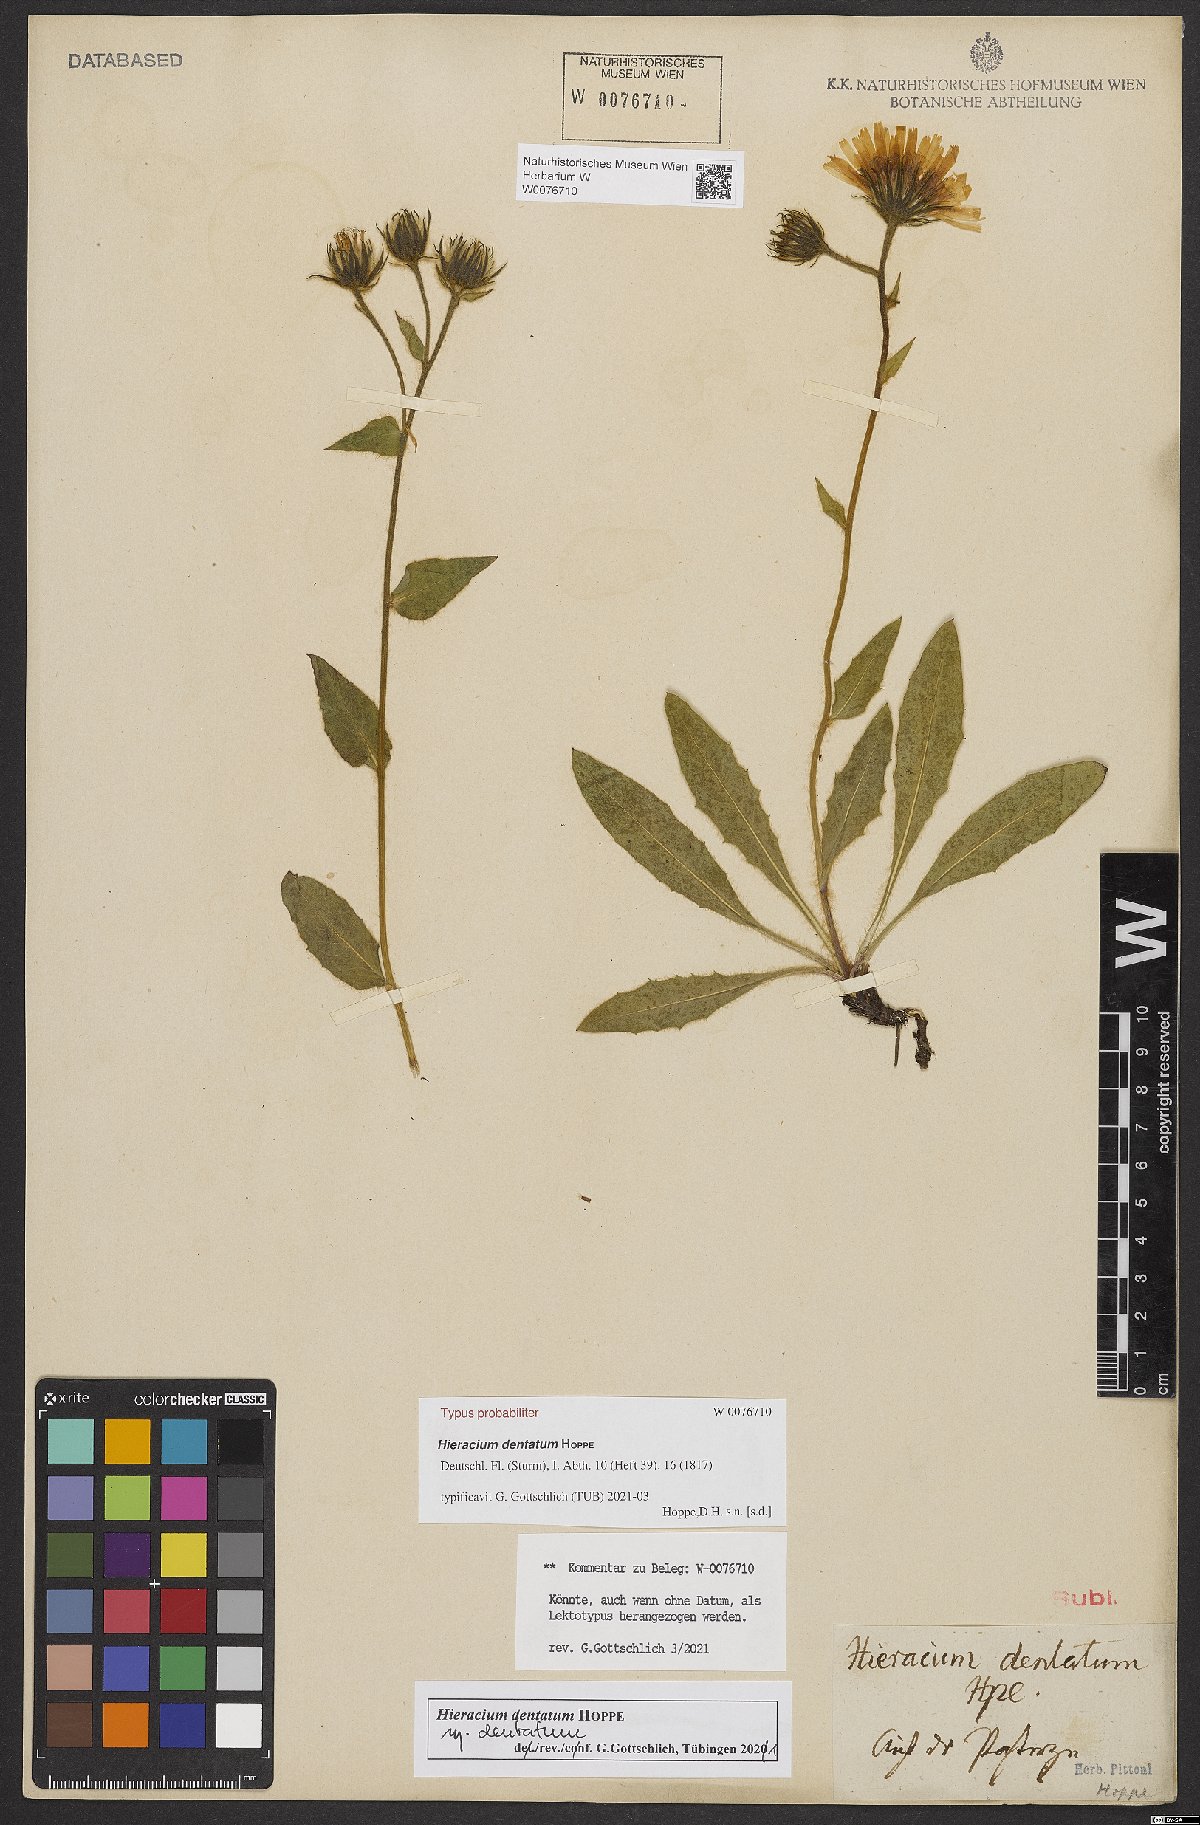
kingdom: Plantae
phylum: Tracheophyta
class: Magnoliopsida
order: Asterales
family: Asteraceae
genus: Hieracium
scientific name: Hieracium dentatum
